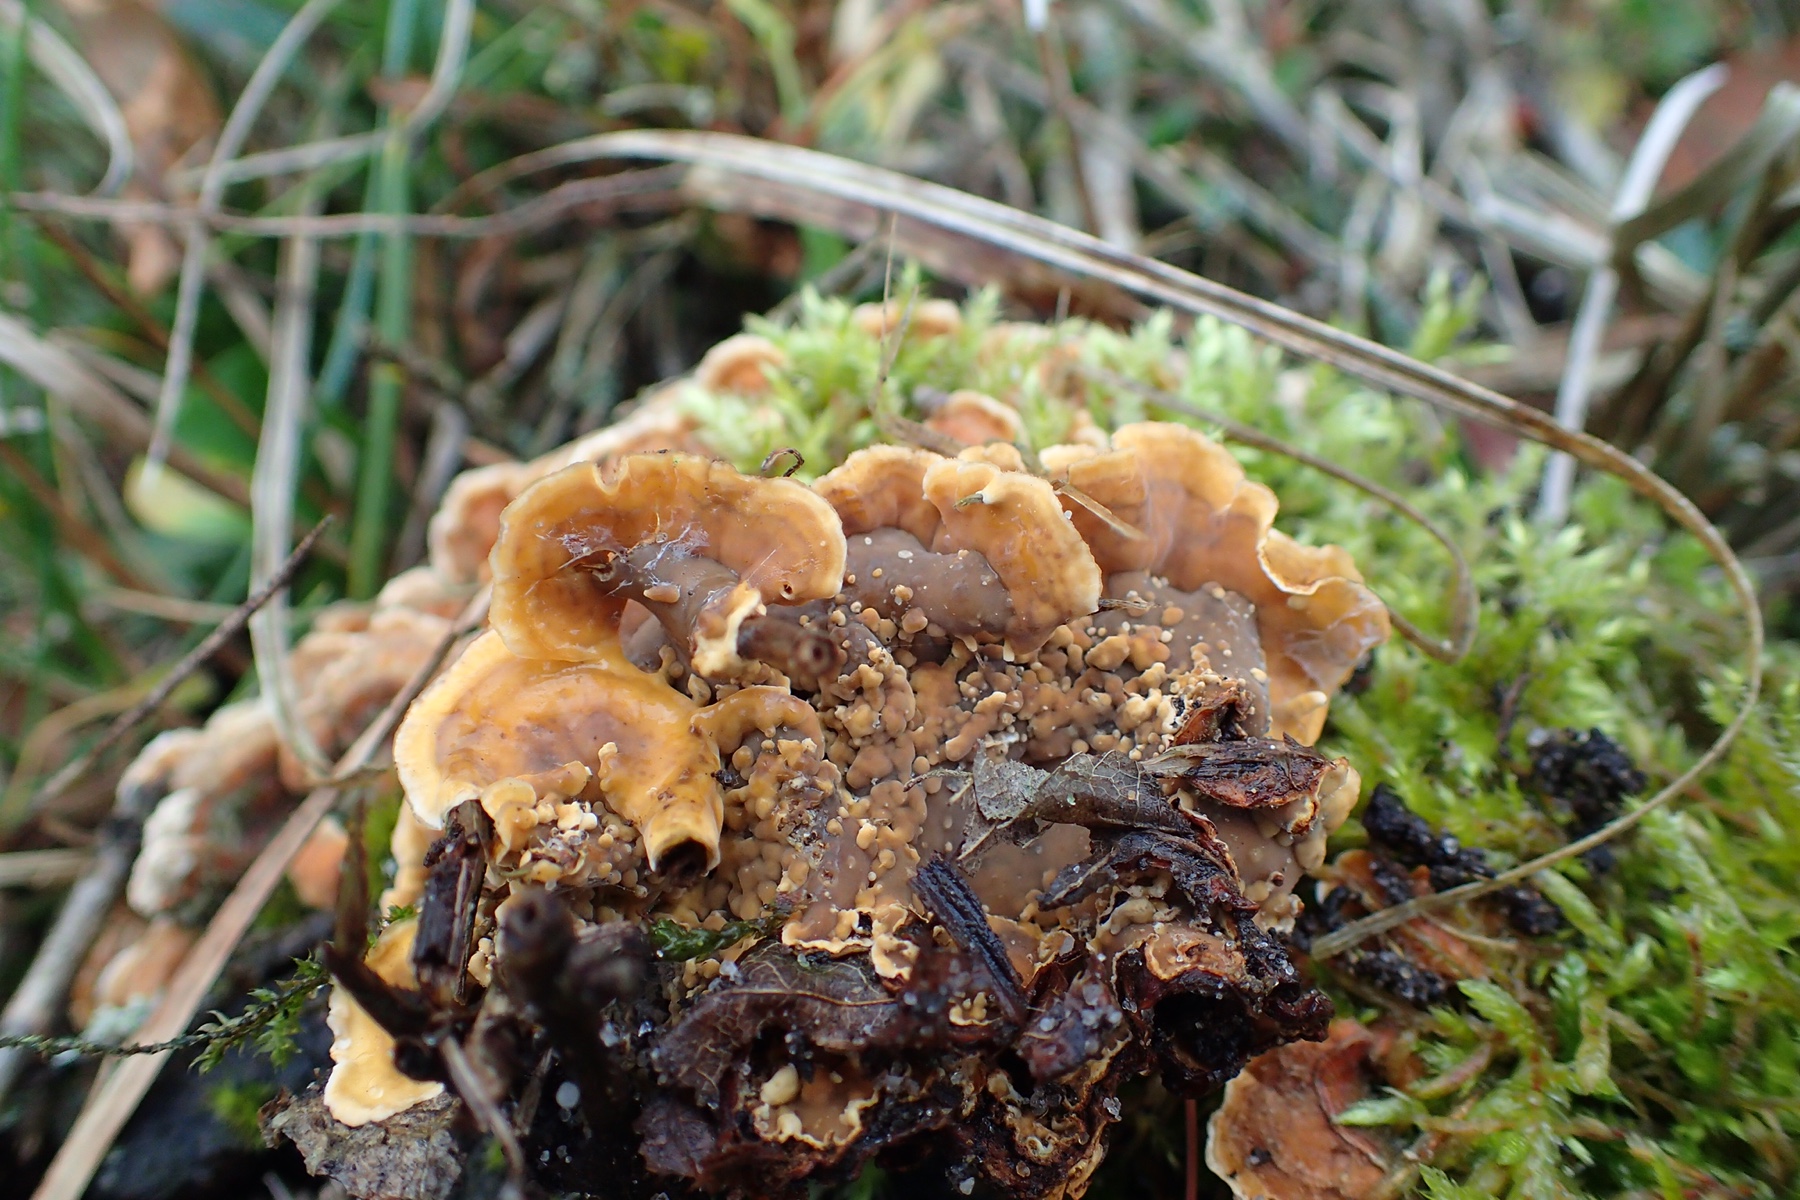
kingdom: Fungi
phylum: Basidiomycota
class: Agaricomycetes
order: Russulales
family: Stereaceae
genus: Stereum
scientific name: Stereum hirsutum
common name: håret lædersvamp
